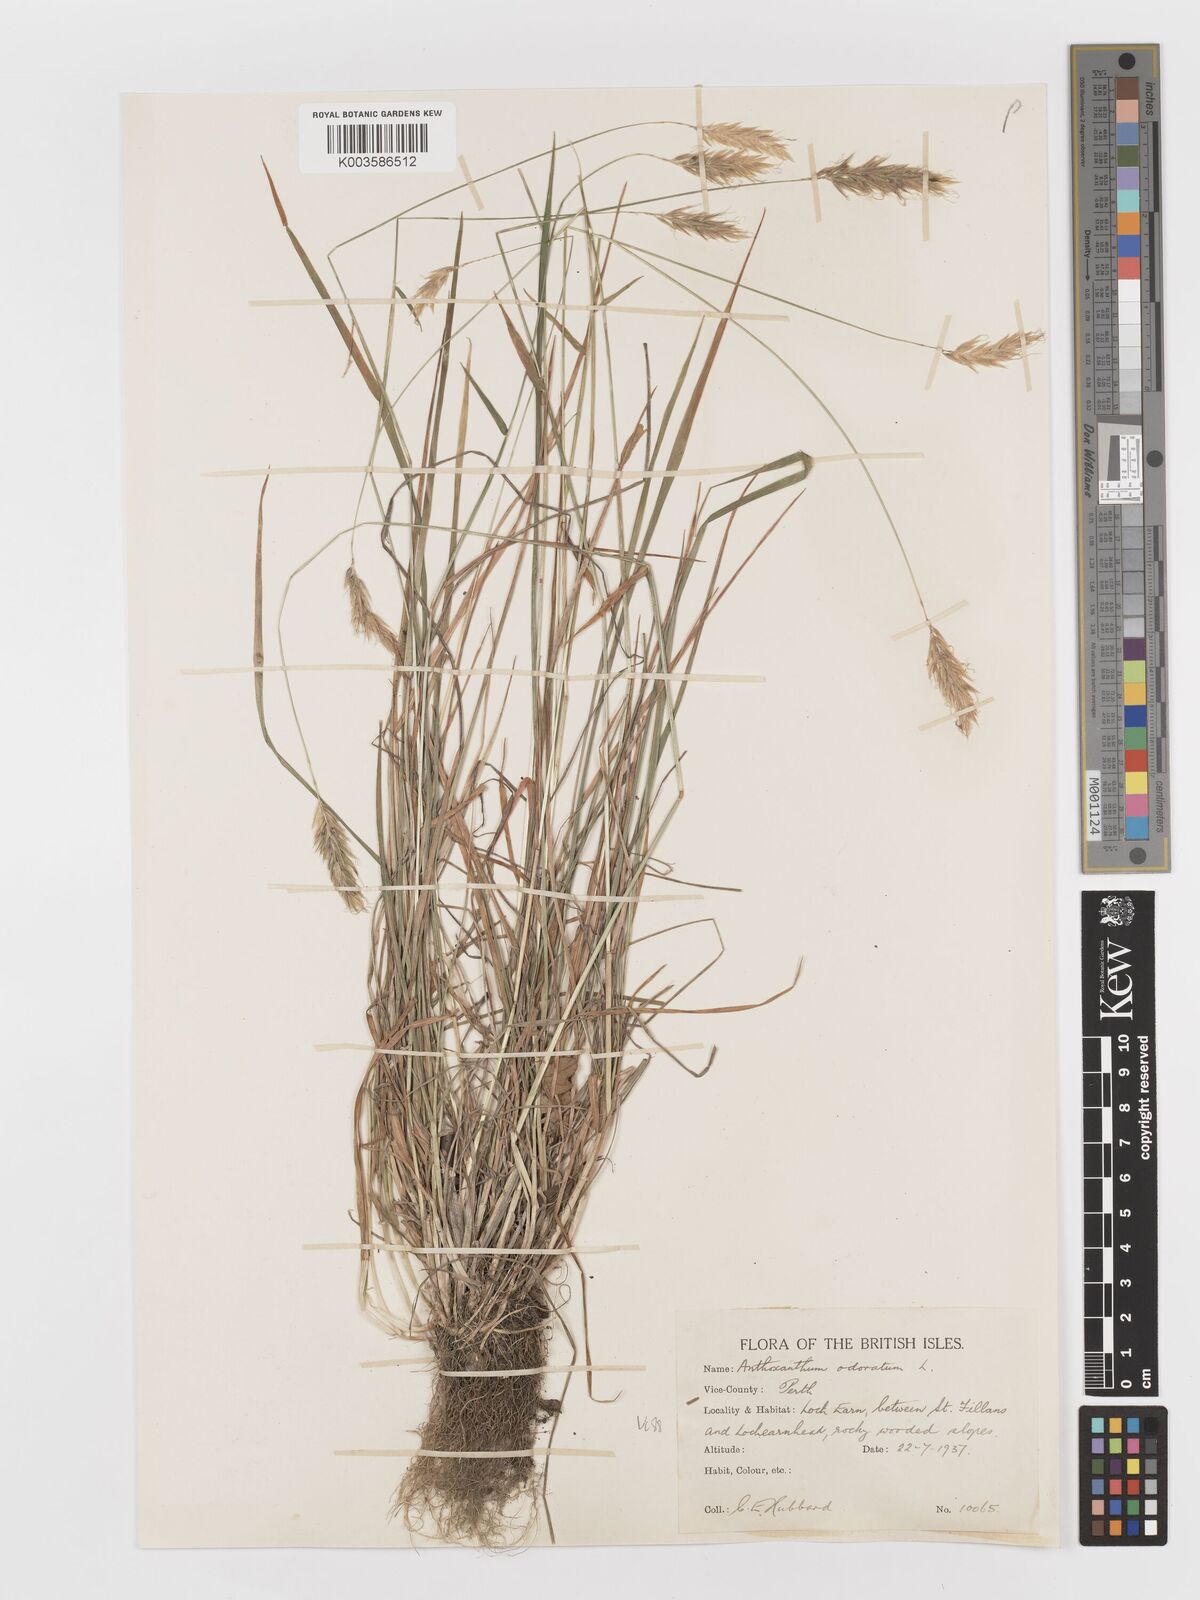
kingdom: Plantae
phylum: Tracheophyta
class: Liliopsida
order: Poales
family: Poaceae
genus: Anthoxanthum
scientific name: Anthoxanthum odoratum
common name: Sweet vernalgrass
